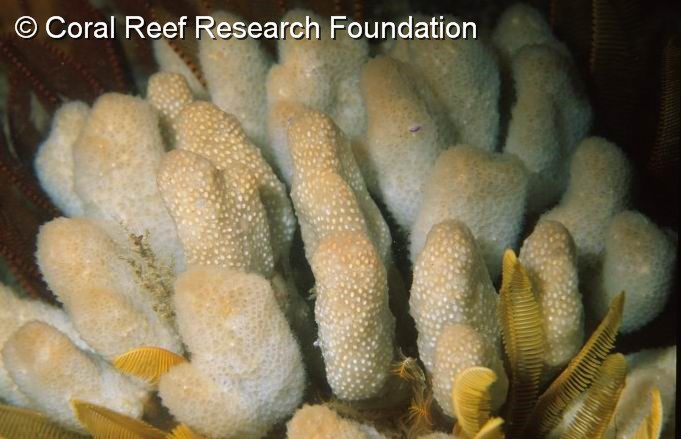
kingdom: Animalia
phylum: Chordata
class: Ascidiacea
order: Aplousobranchia
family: Pseudodistomidae
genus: Pseudodistoma
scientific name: Pseudodistoma africanum
